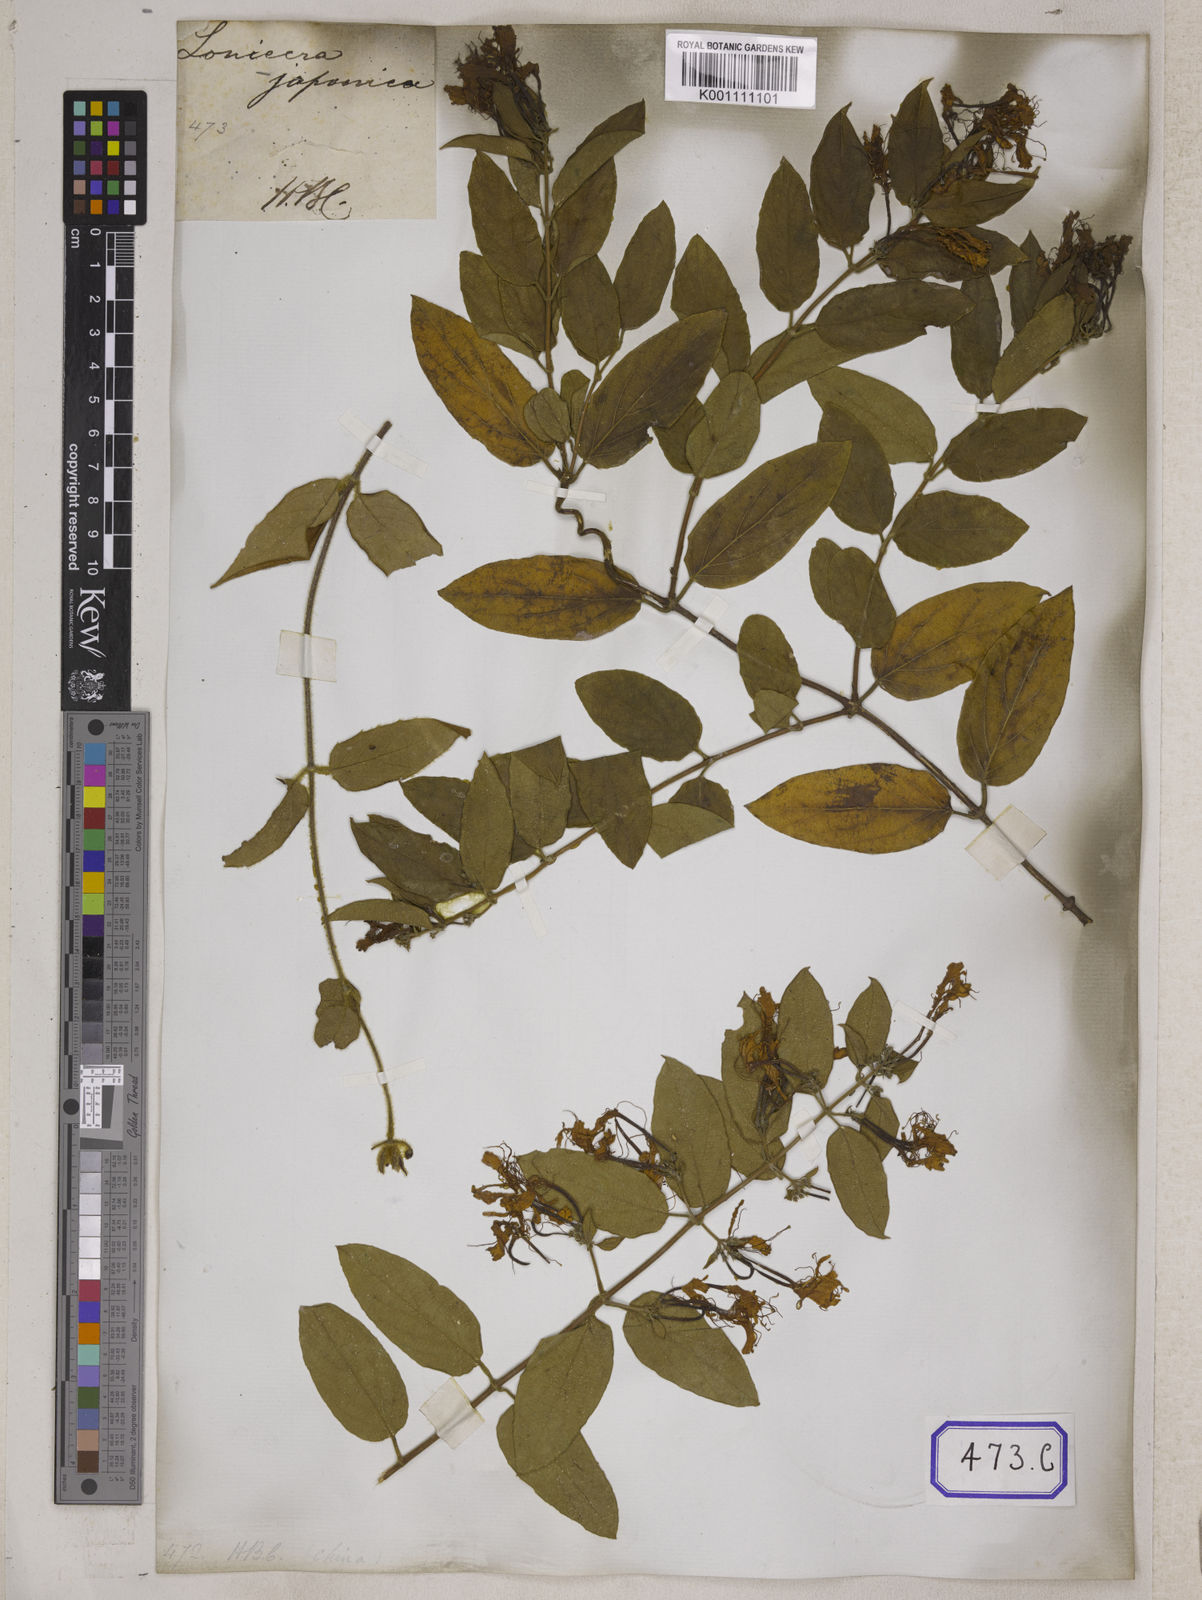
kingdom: Plantae
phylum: Tracheophyta
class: Magnoliopsida
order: Dipsacales
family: Caprifoliaceae
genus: Lonicera
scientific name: Lonicera japonica
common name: Japanese honeysuckle
